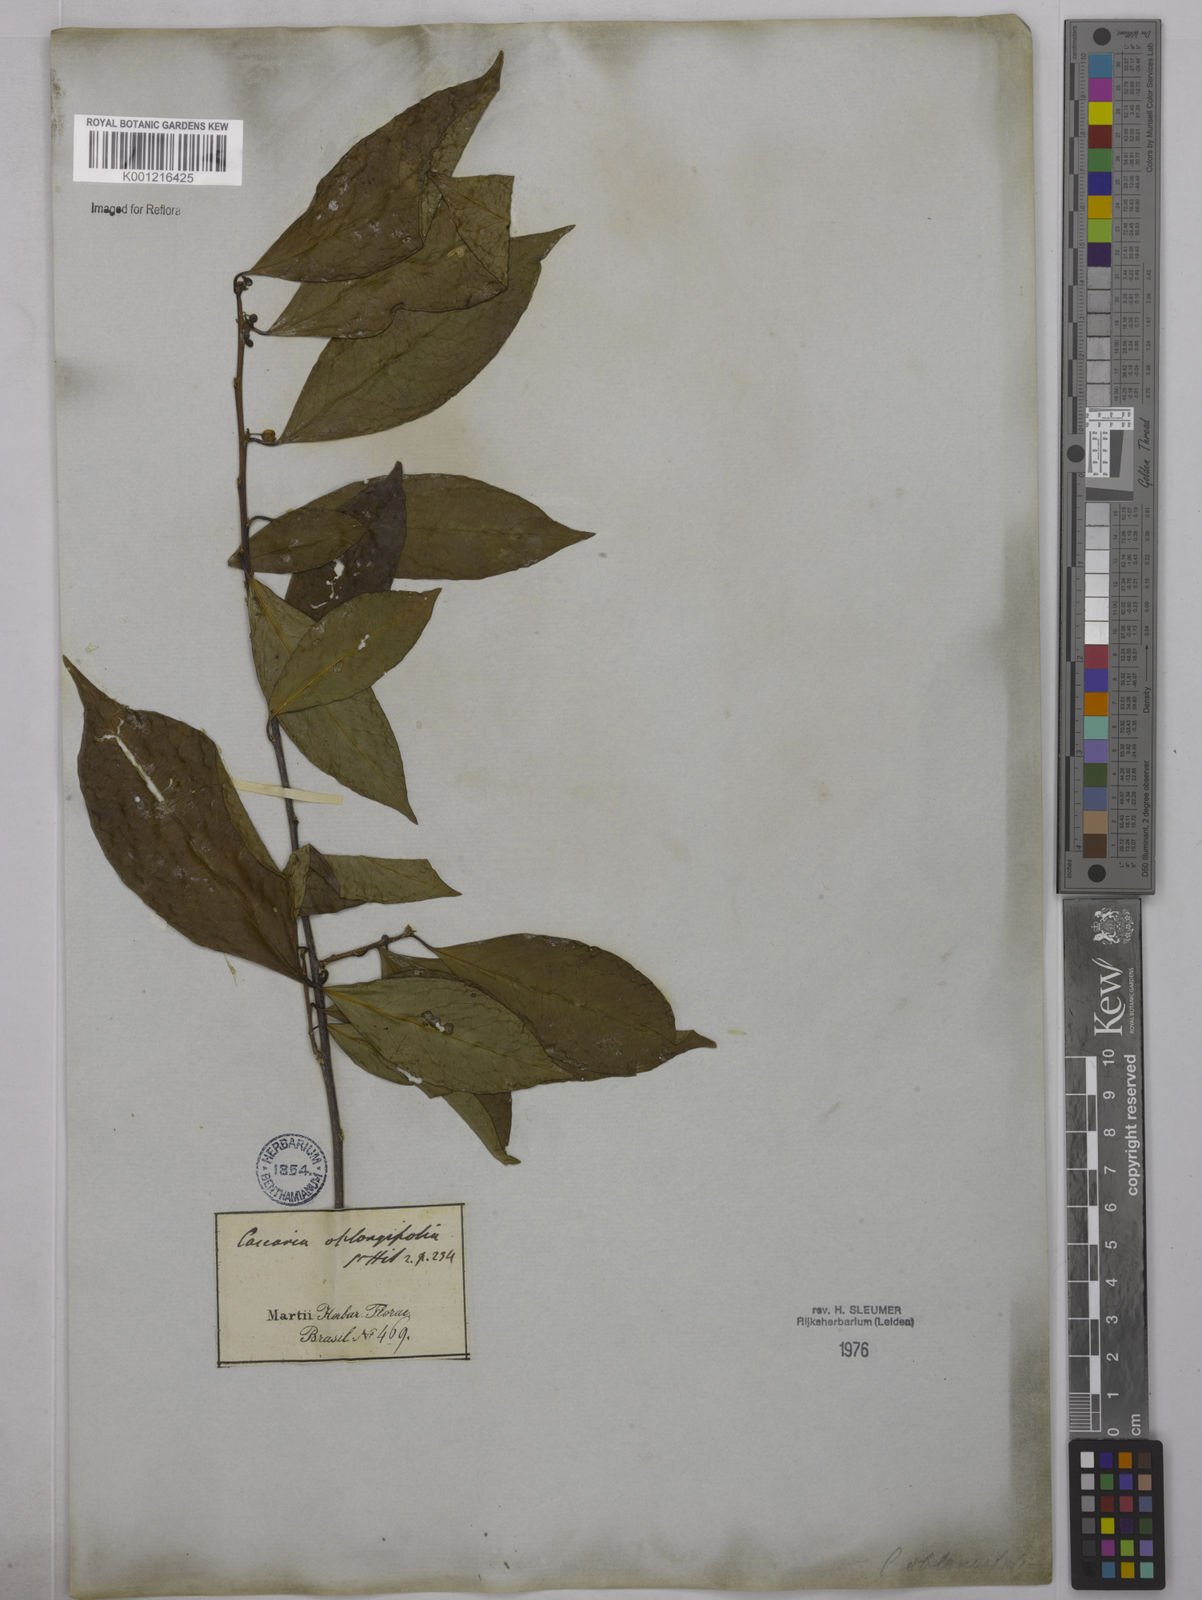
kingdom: Plantae
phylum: Tracheophyta
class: Magnoliopsida
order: Malpighiales
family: Salicaceae
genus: Casearia
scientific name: Casearia oblongifolia
